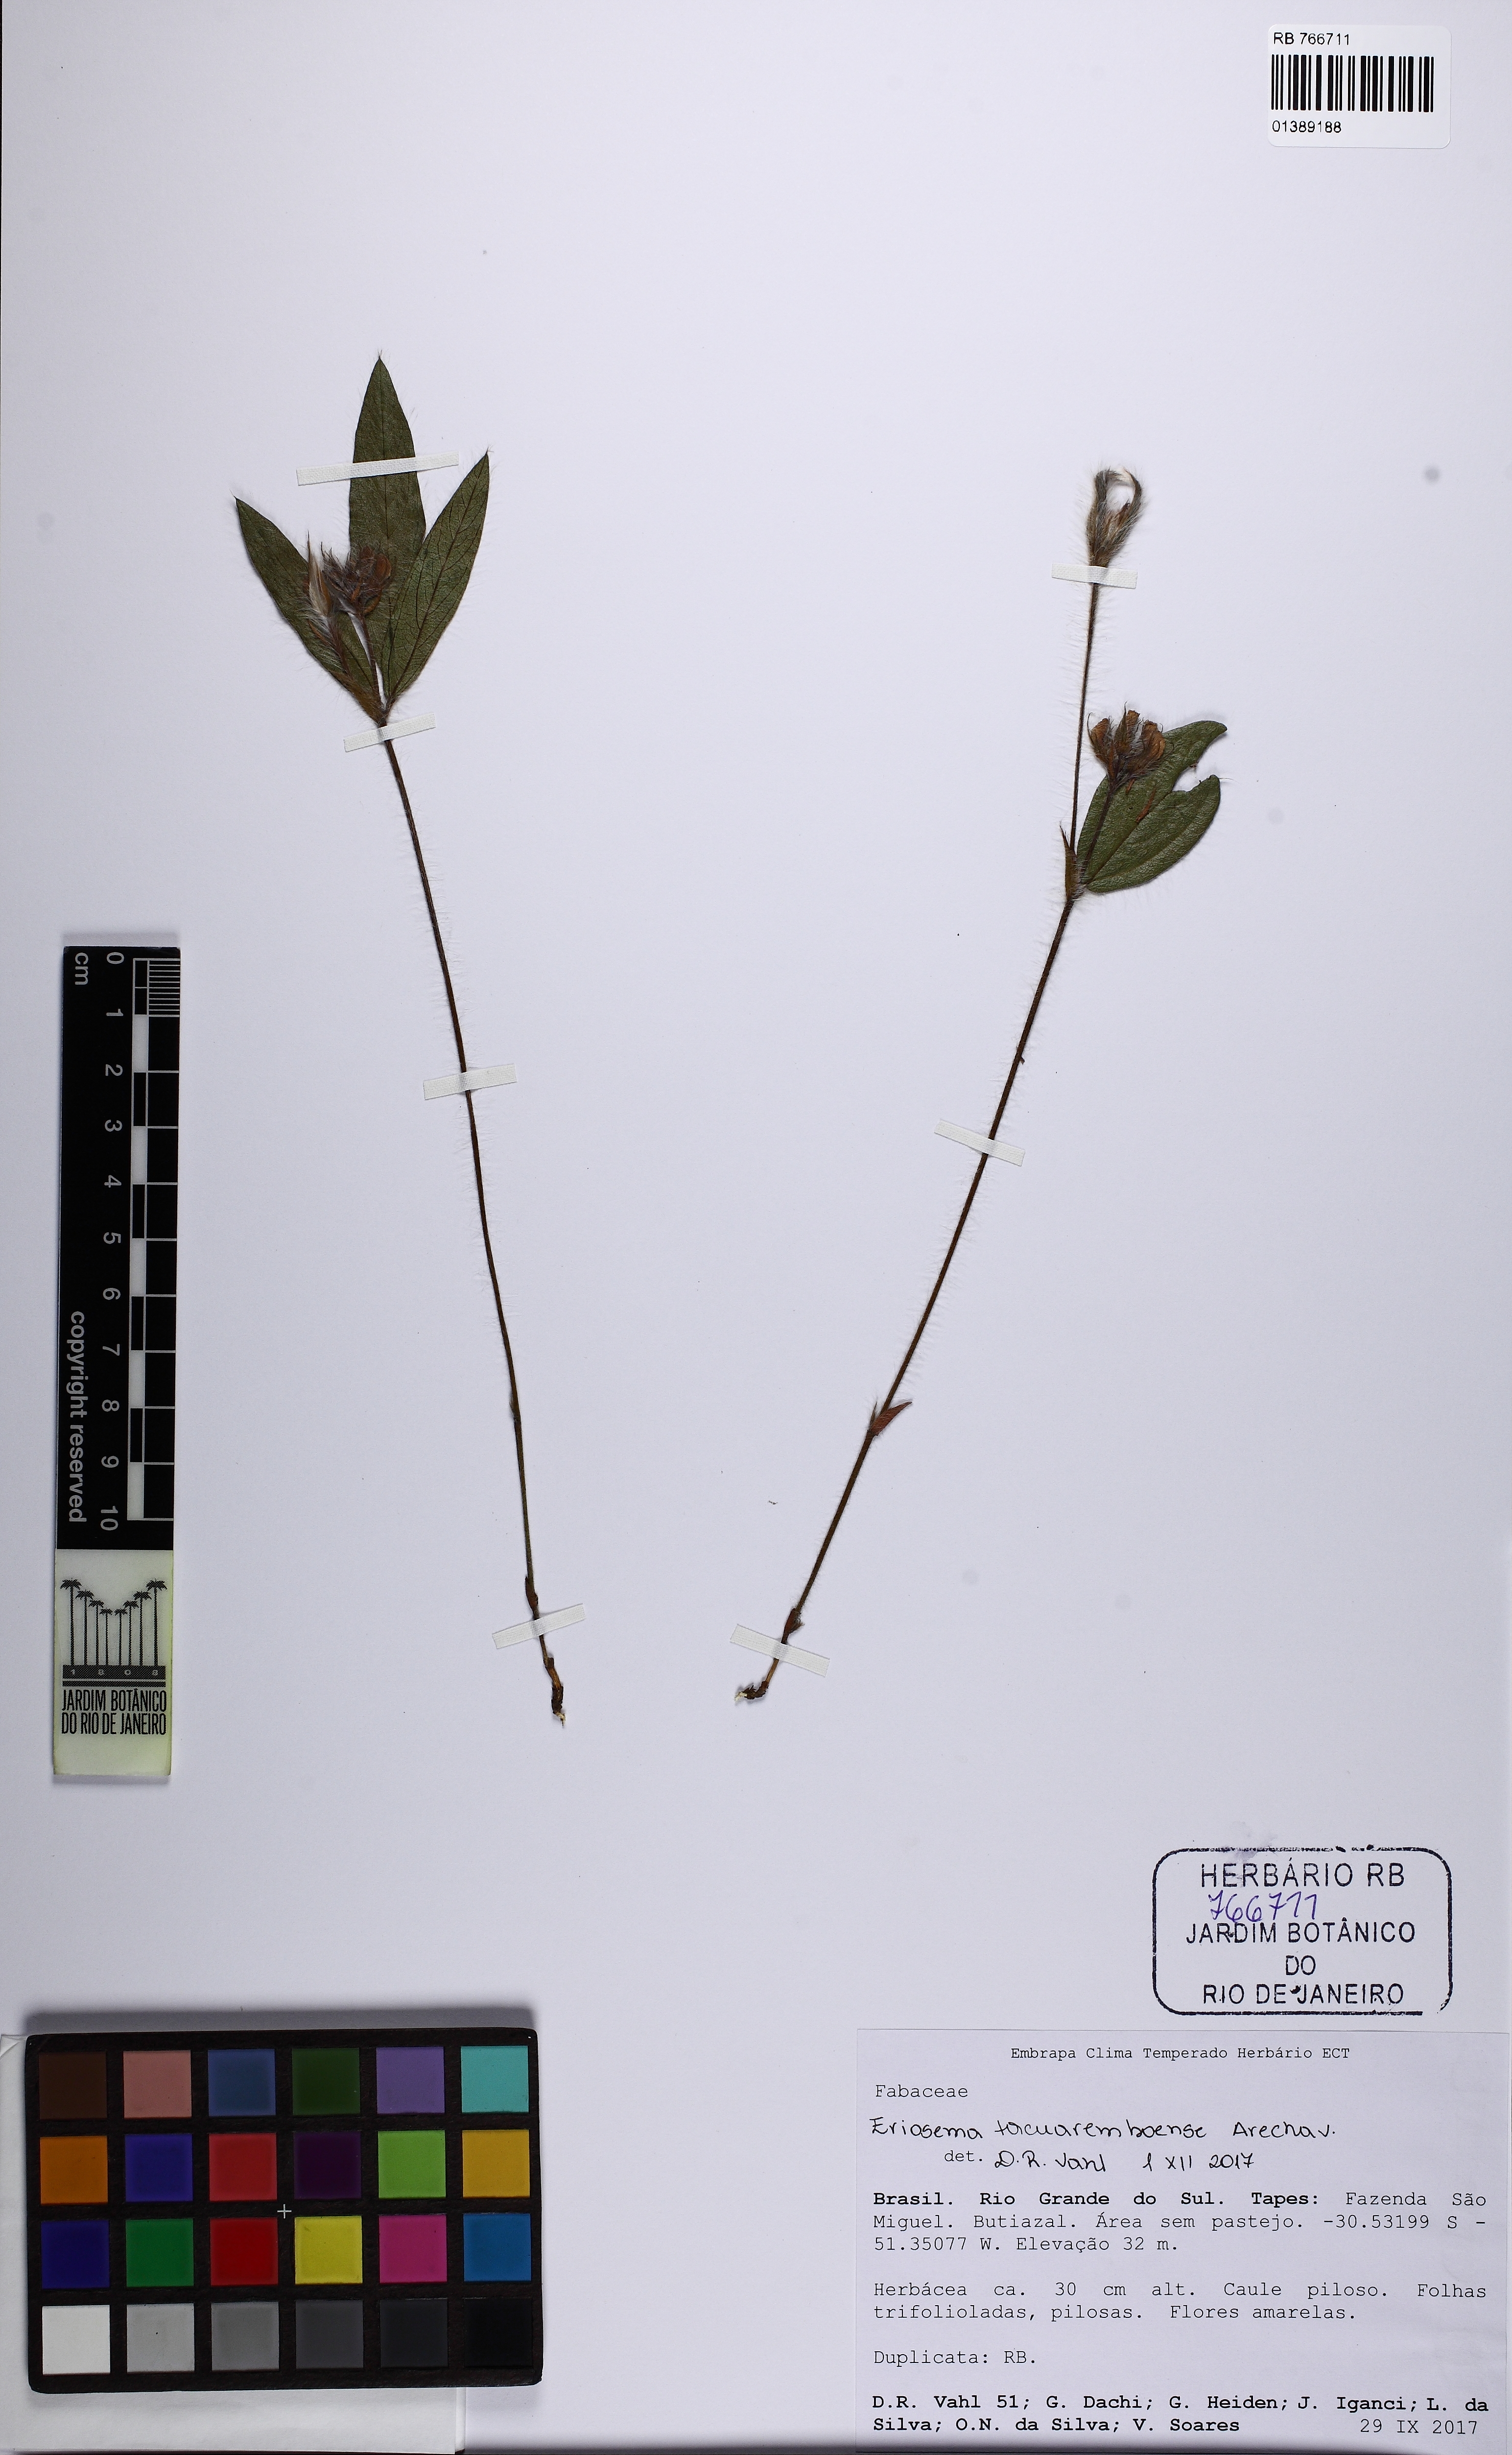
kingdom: Plantae
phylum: Tracheophyta
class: Magnoliopsida
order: Fabales
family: Fabaceae
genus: Eriosema
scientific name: Eriosema tacuaremboense
